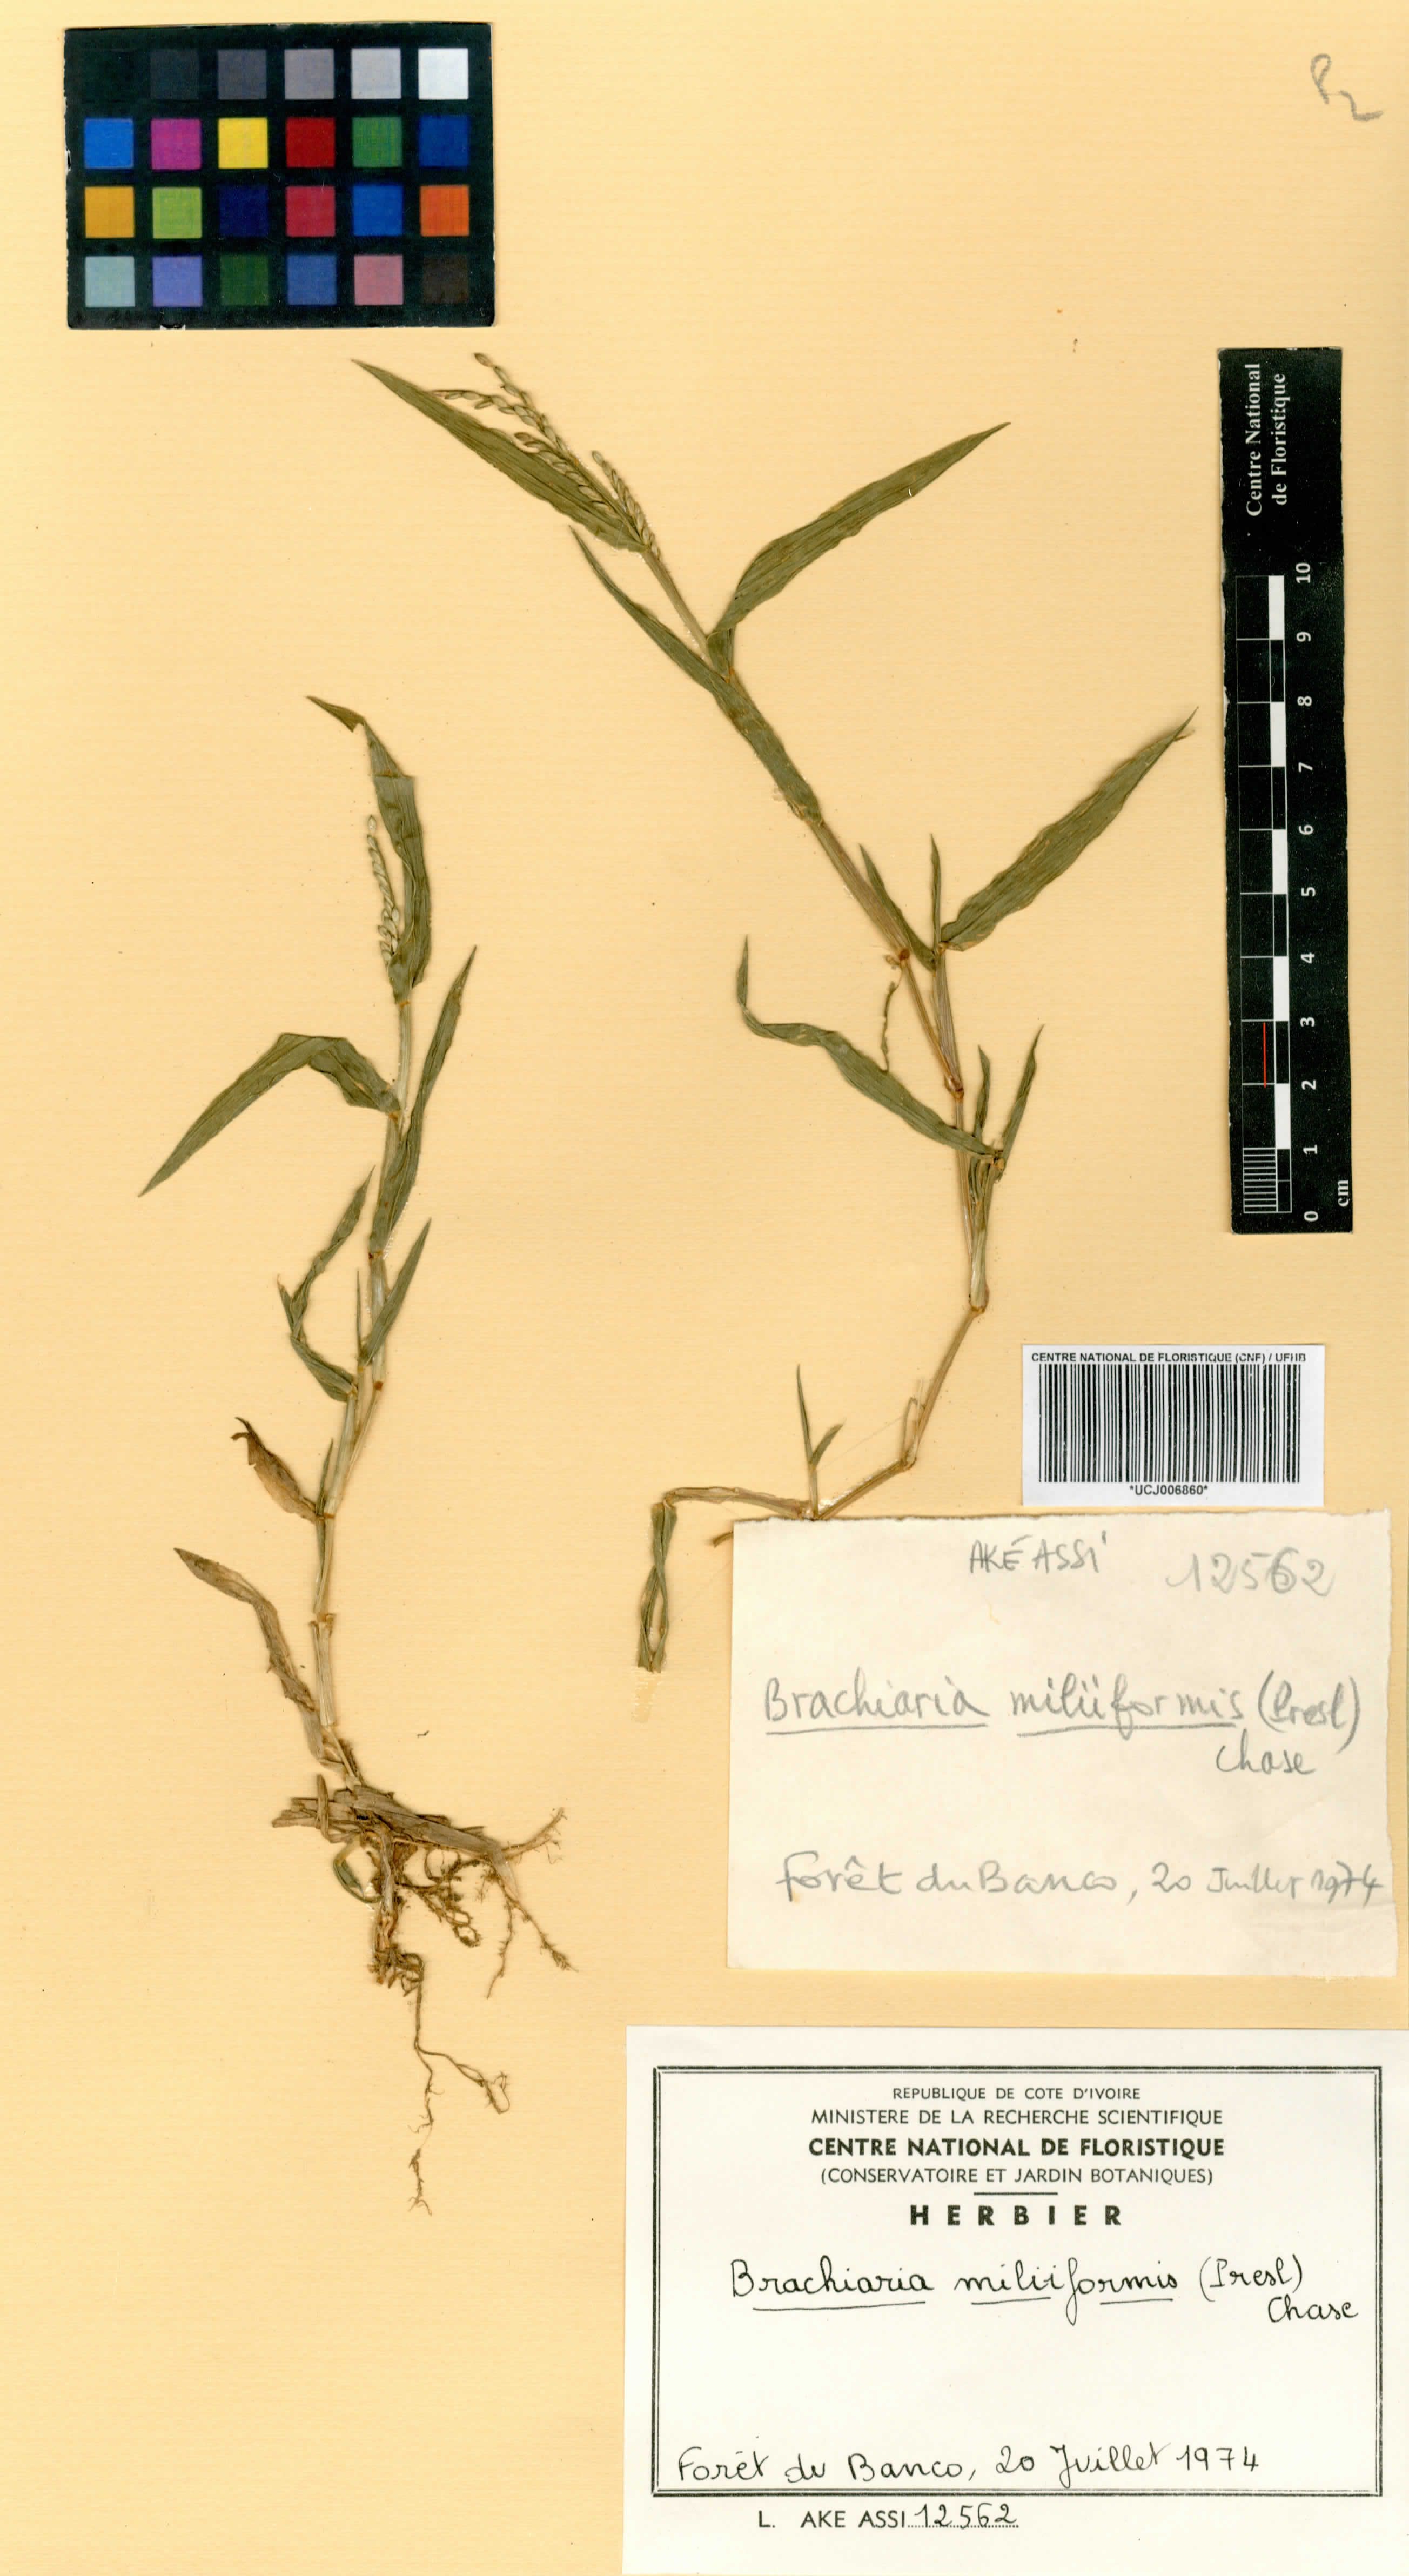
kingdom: Plantae
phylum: Tracheophyta
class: Liliopsida
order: Poales
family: Poaceae
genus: Urochloa
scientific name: Urochloa subquadripara
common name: Armgrass millet
